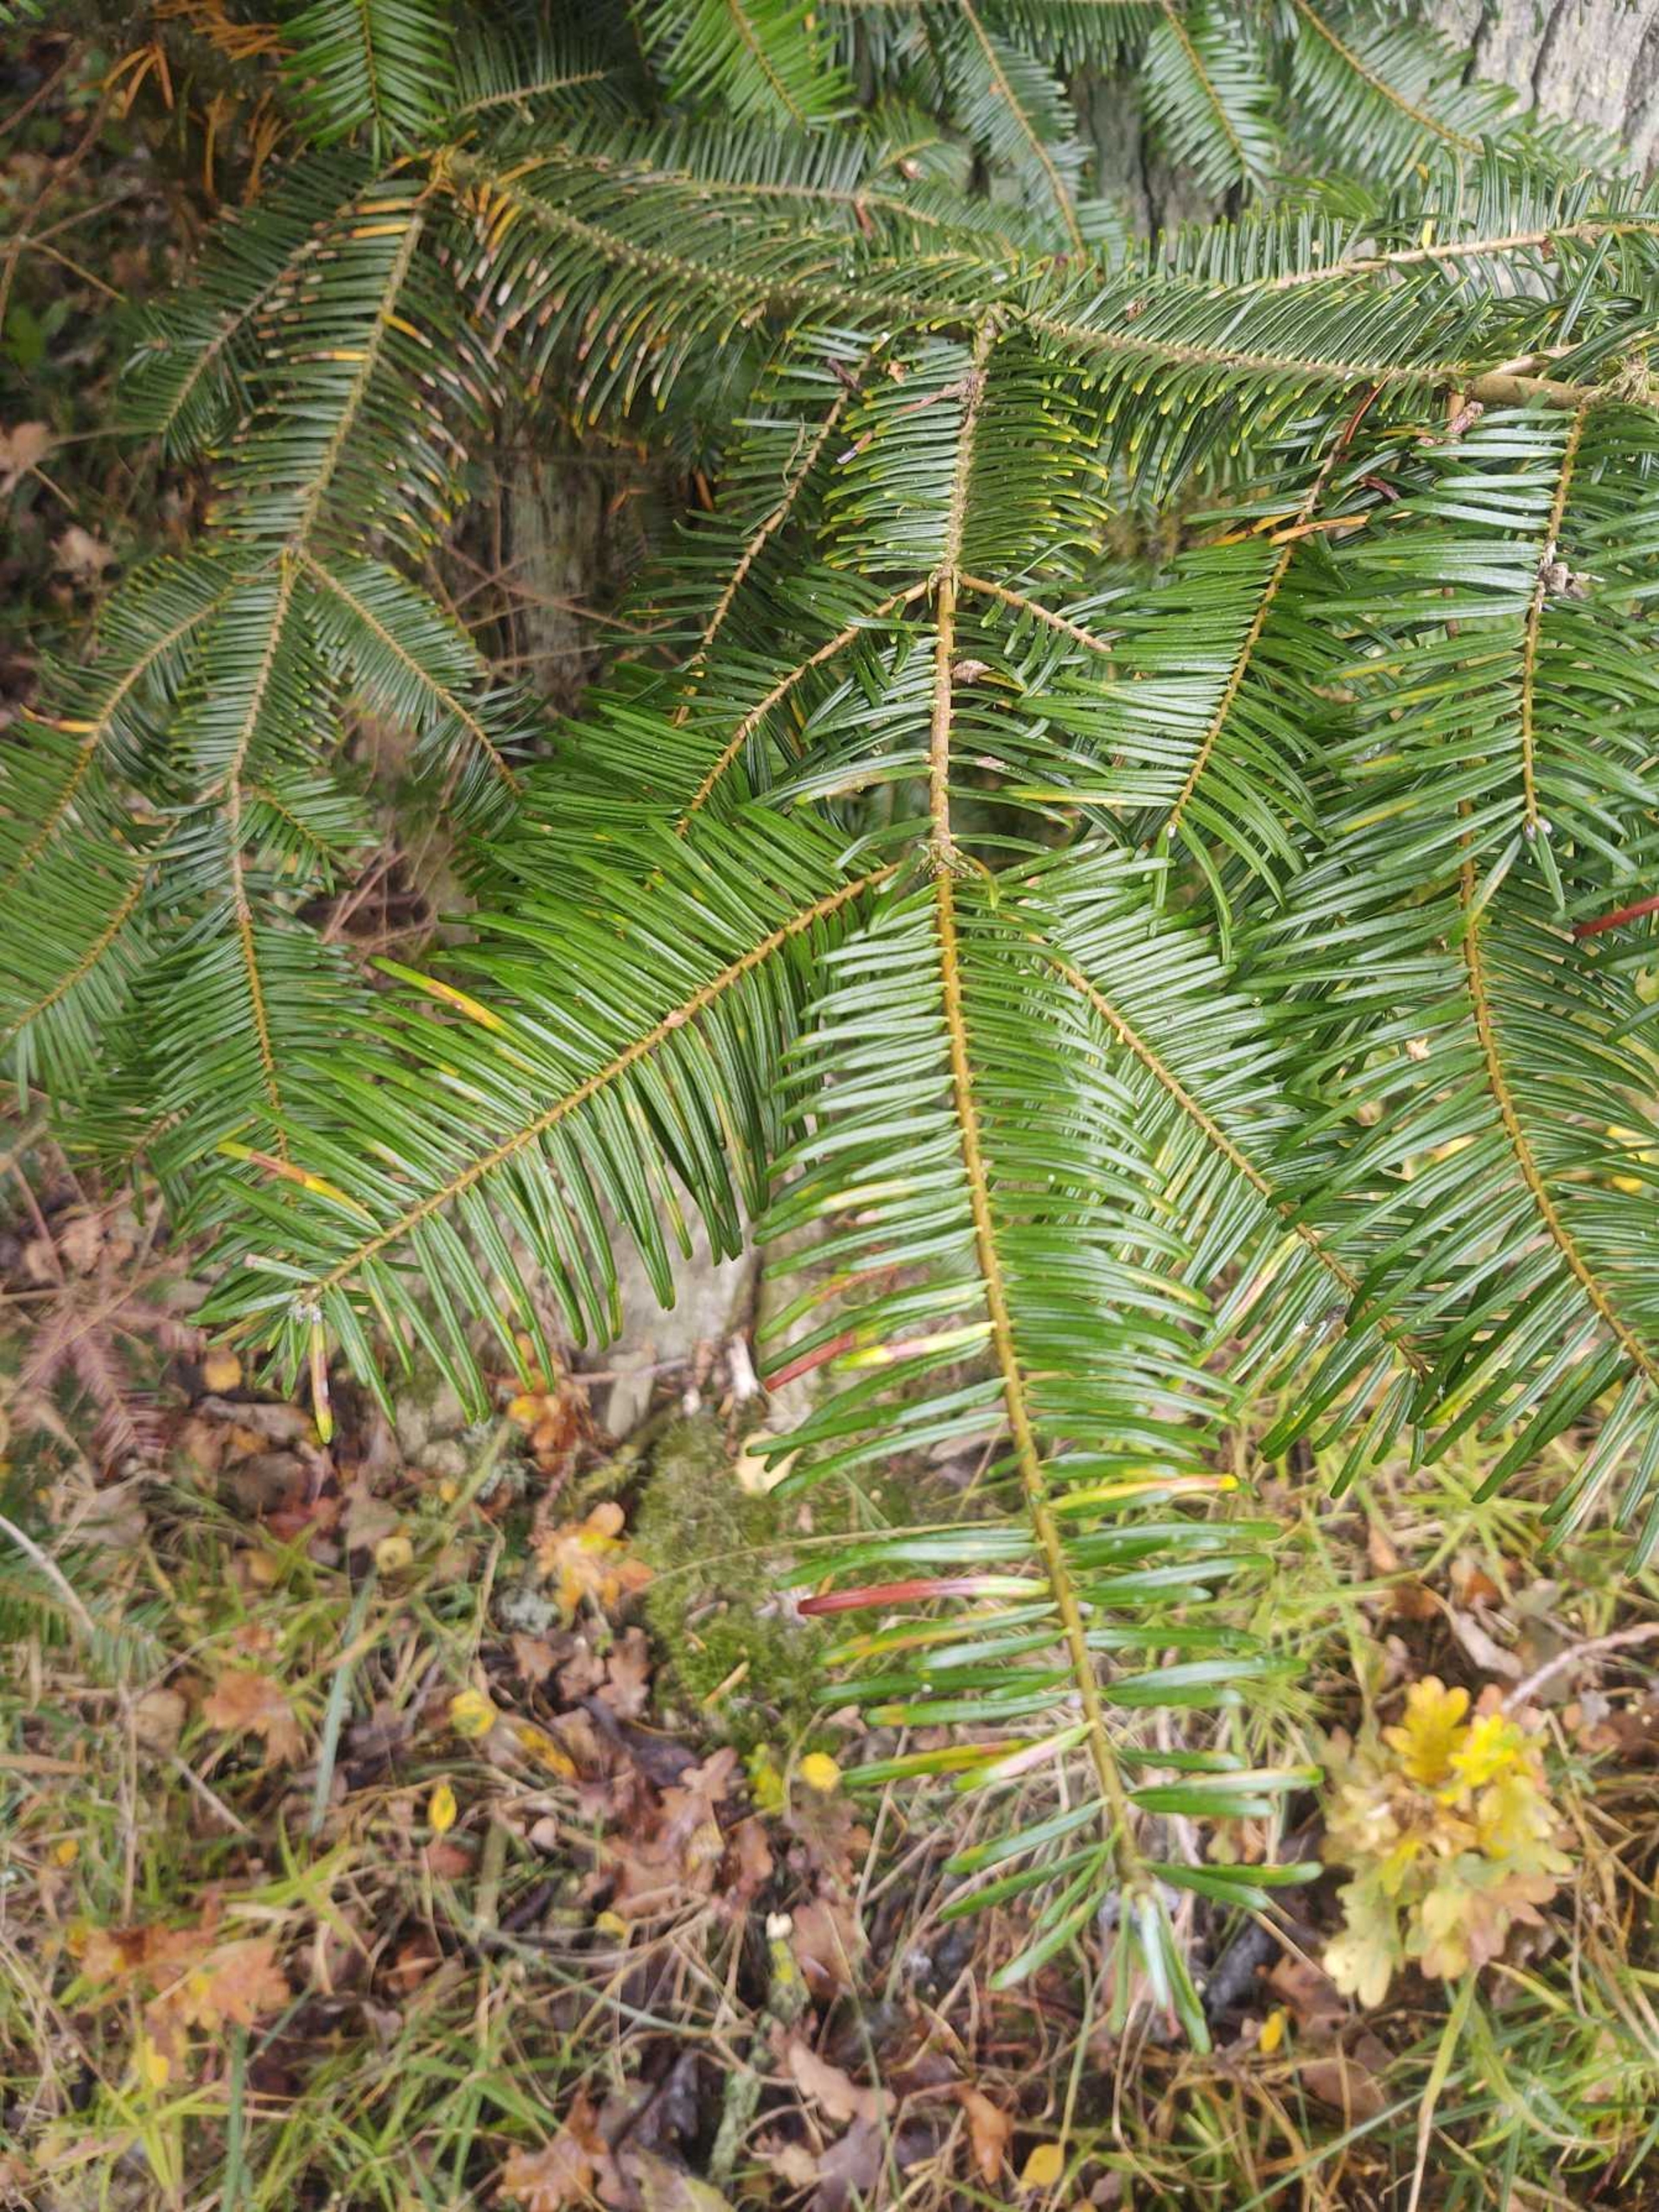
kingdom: Plantae
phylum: Tracheophyta
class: Pinopsida
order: Pinales
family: Pinaceae
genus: Abies
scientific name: Abies grandis
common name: Kæmpegran
